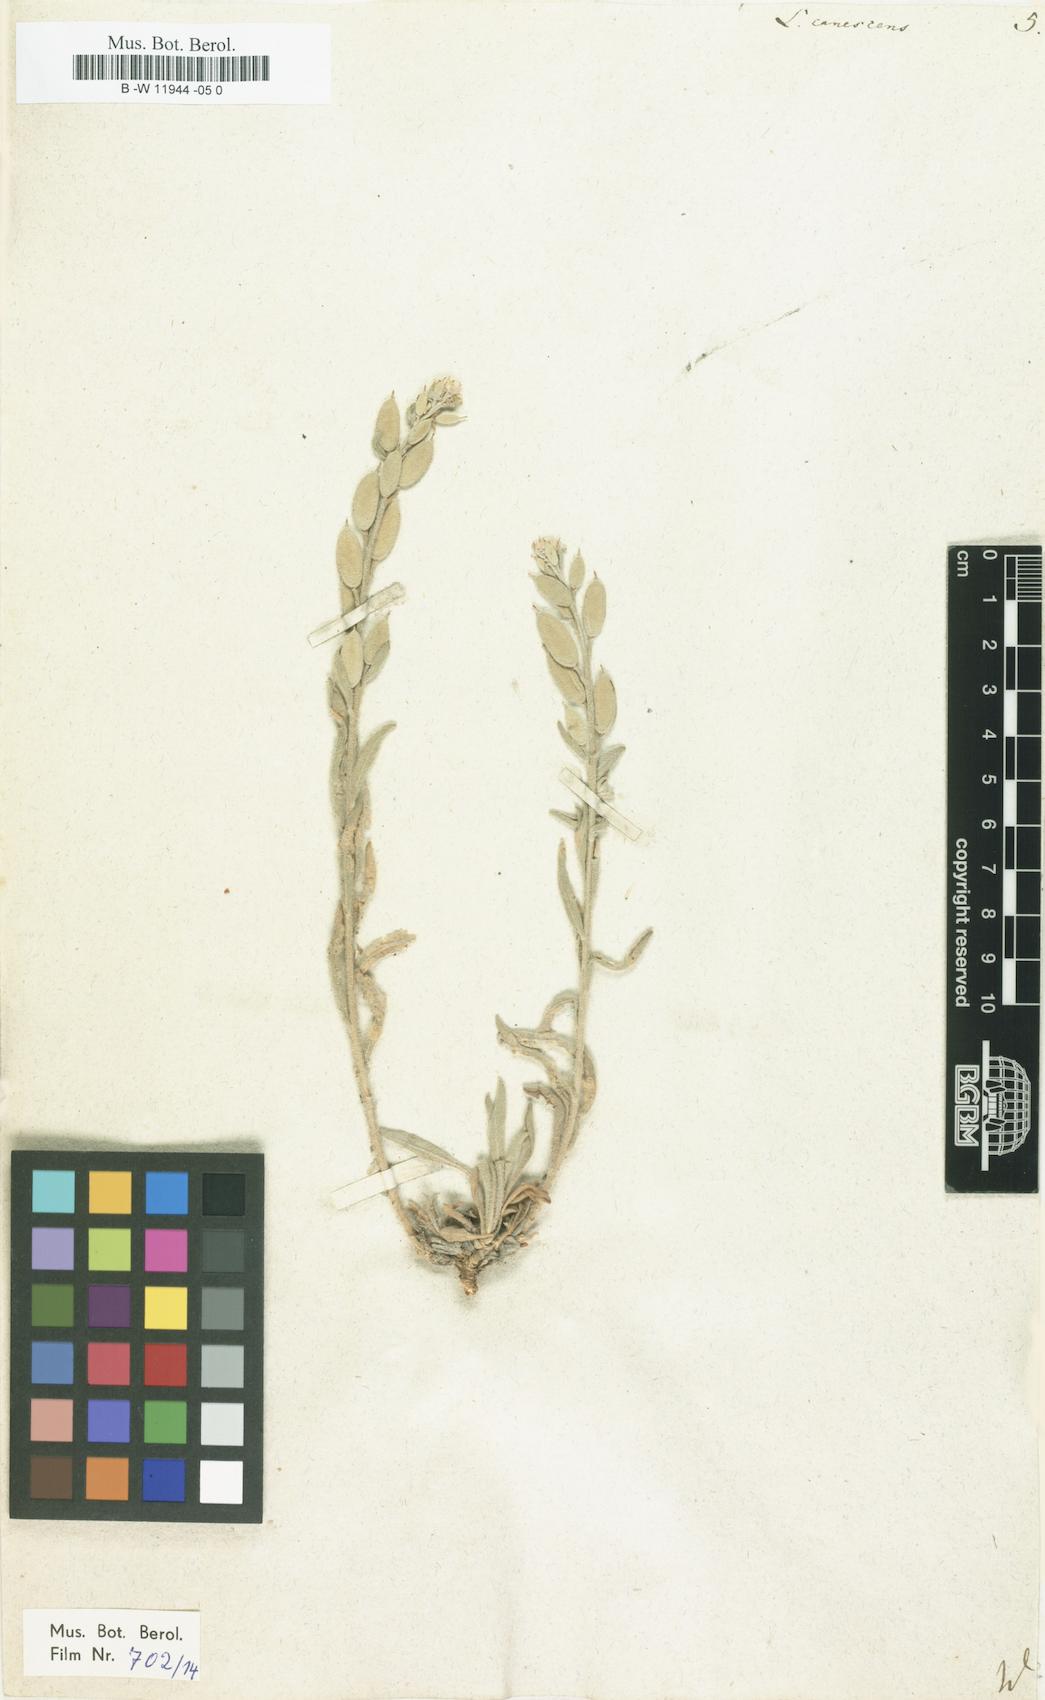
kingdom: Plantae
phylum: Tracheophyta
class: Magnoliopsida
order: Brassicales
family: Brassicaceae
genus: Fibigia
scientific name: Fibigia clypeata
